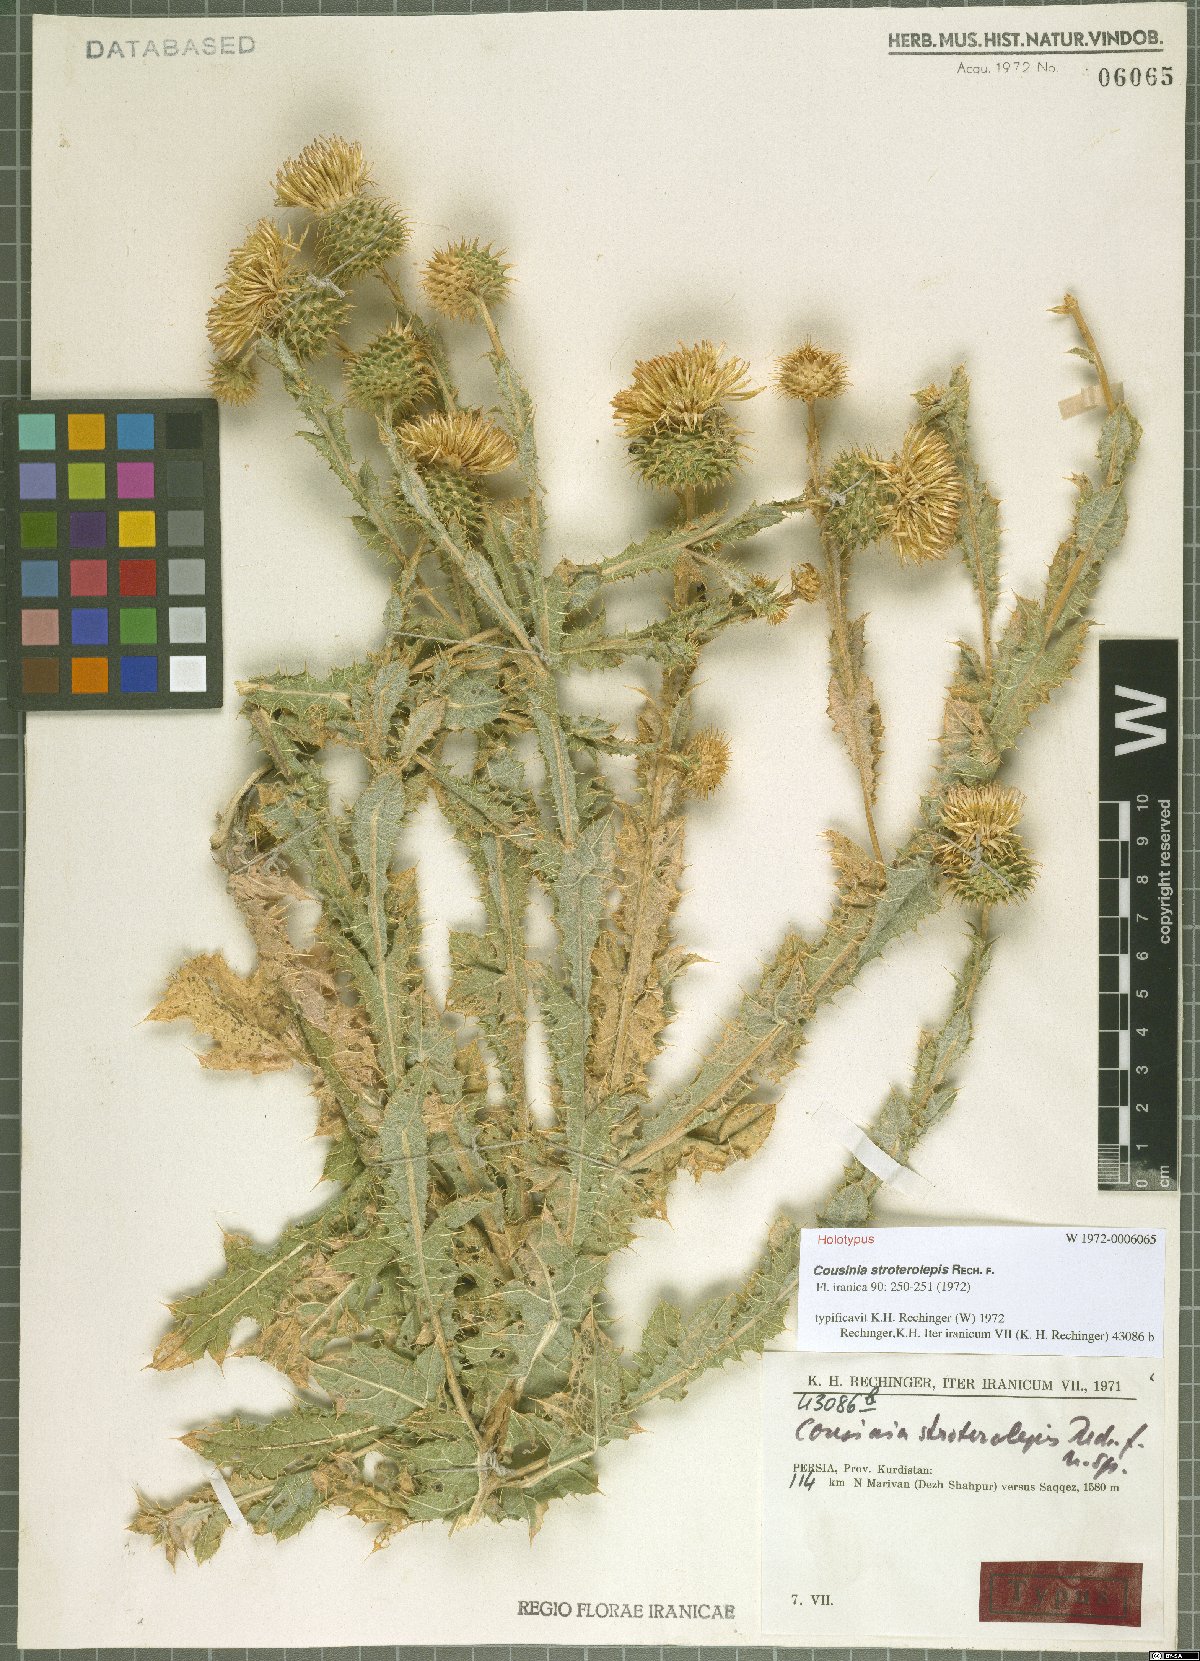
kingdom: Plantae
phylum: Tracheophyta
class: Magnoliopsida
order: Asterales
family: Asteraceae
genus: Cousinia
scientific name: Cousinia stroterolepis
